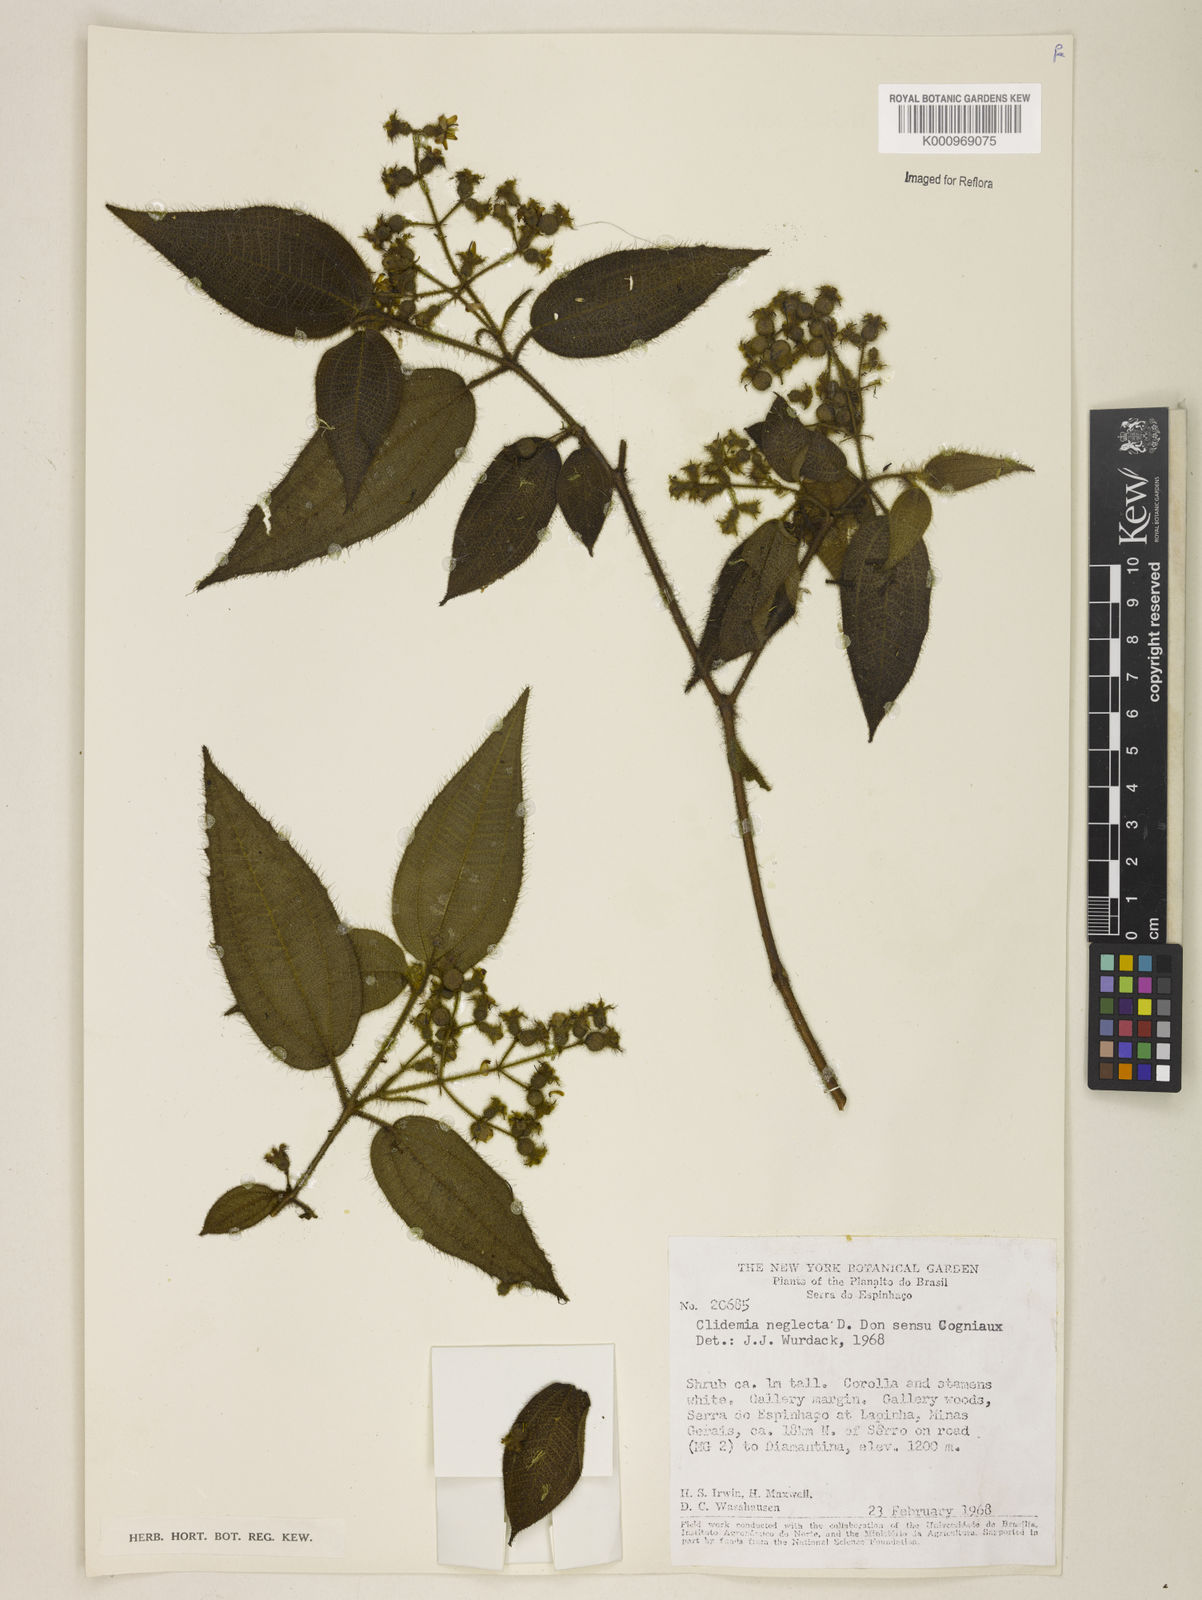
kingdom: Plantae
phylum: Tracheophyta
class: Magnoliopsida
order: Myrtales
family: Melastomataceae
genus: Miconia
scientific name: Miconia dependens
